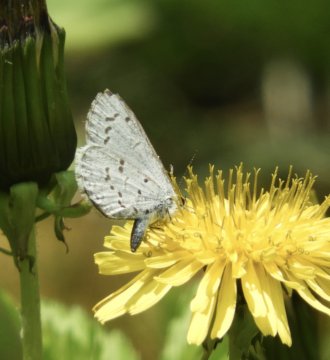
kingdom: Animalia
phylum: Arthropoda
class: Insecta
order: Lepidoptera
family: Lycaenidae
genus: Celastrina
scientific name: Celastrina lucia
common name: Northern Spring Azure
